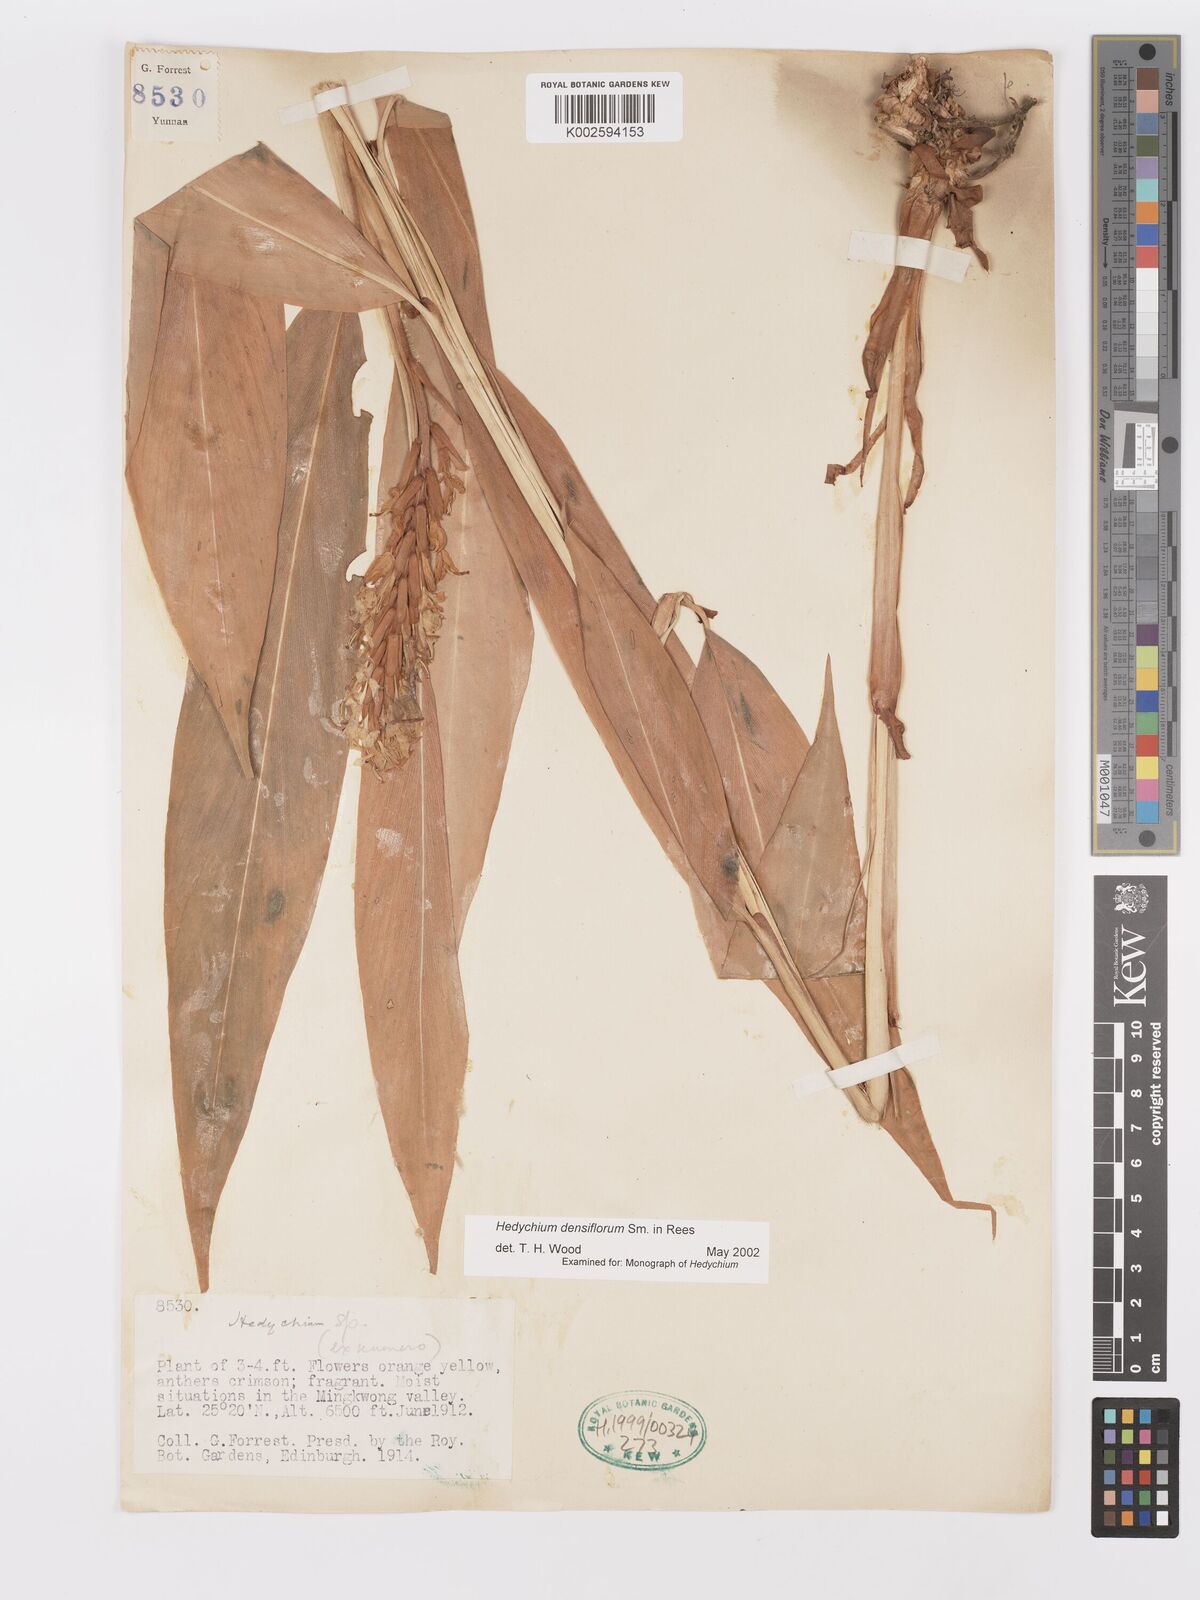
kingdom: Plantae
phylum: Tracheophyta
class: Liliopsida
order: Zingiberales
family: Zingiberaceae
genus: Hedychium
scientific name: Hedychium densiflorum
